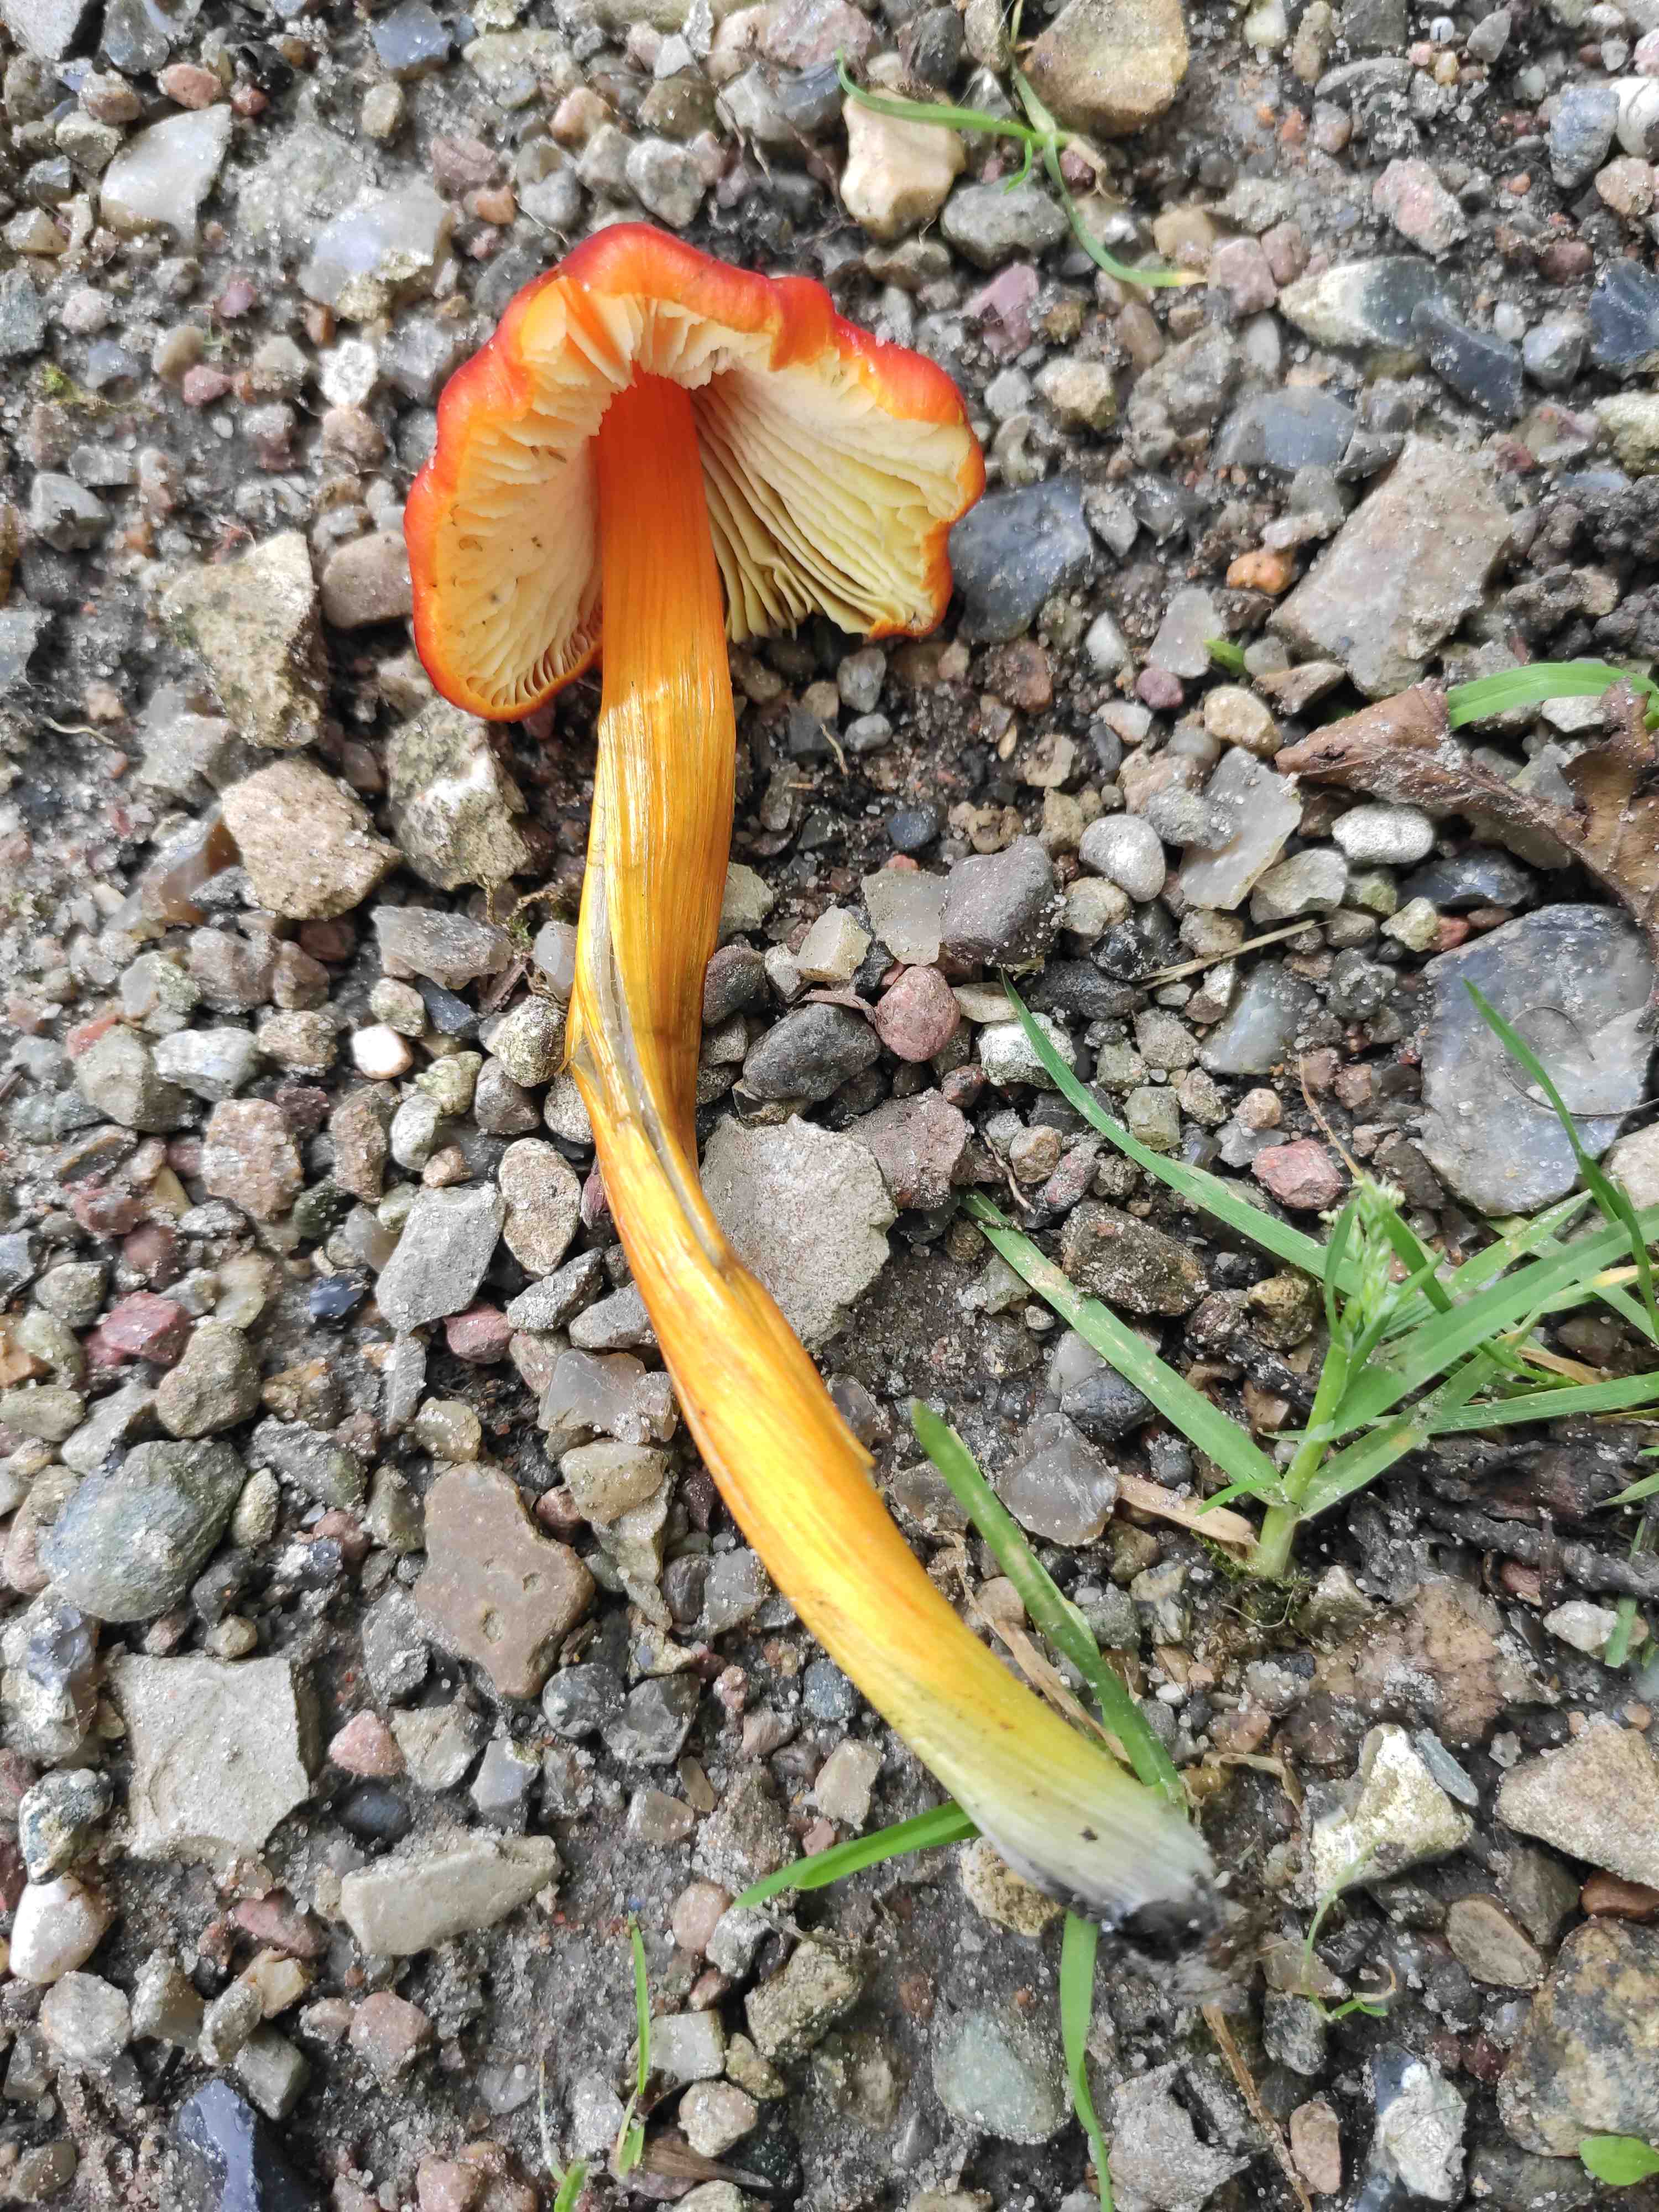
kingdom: Fungi
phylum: Basidiomycota
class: Agaricomycetes
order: Agaricales
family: Hygrophoraceae
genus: Hygrocybe
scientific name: Hygrocybe conica
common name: kegle-vokshat
